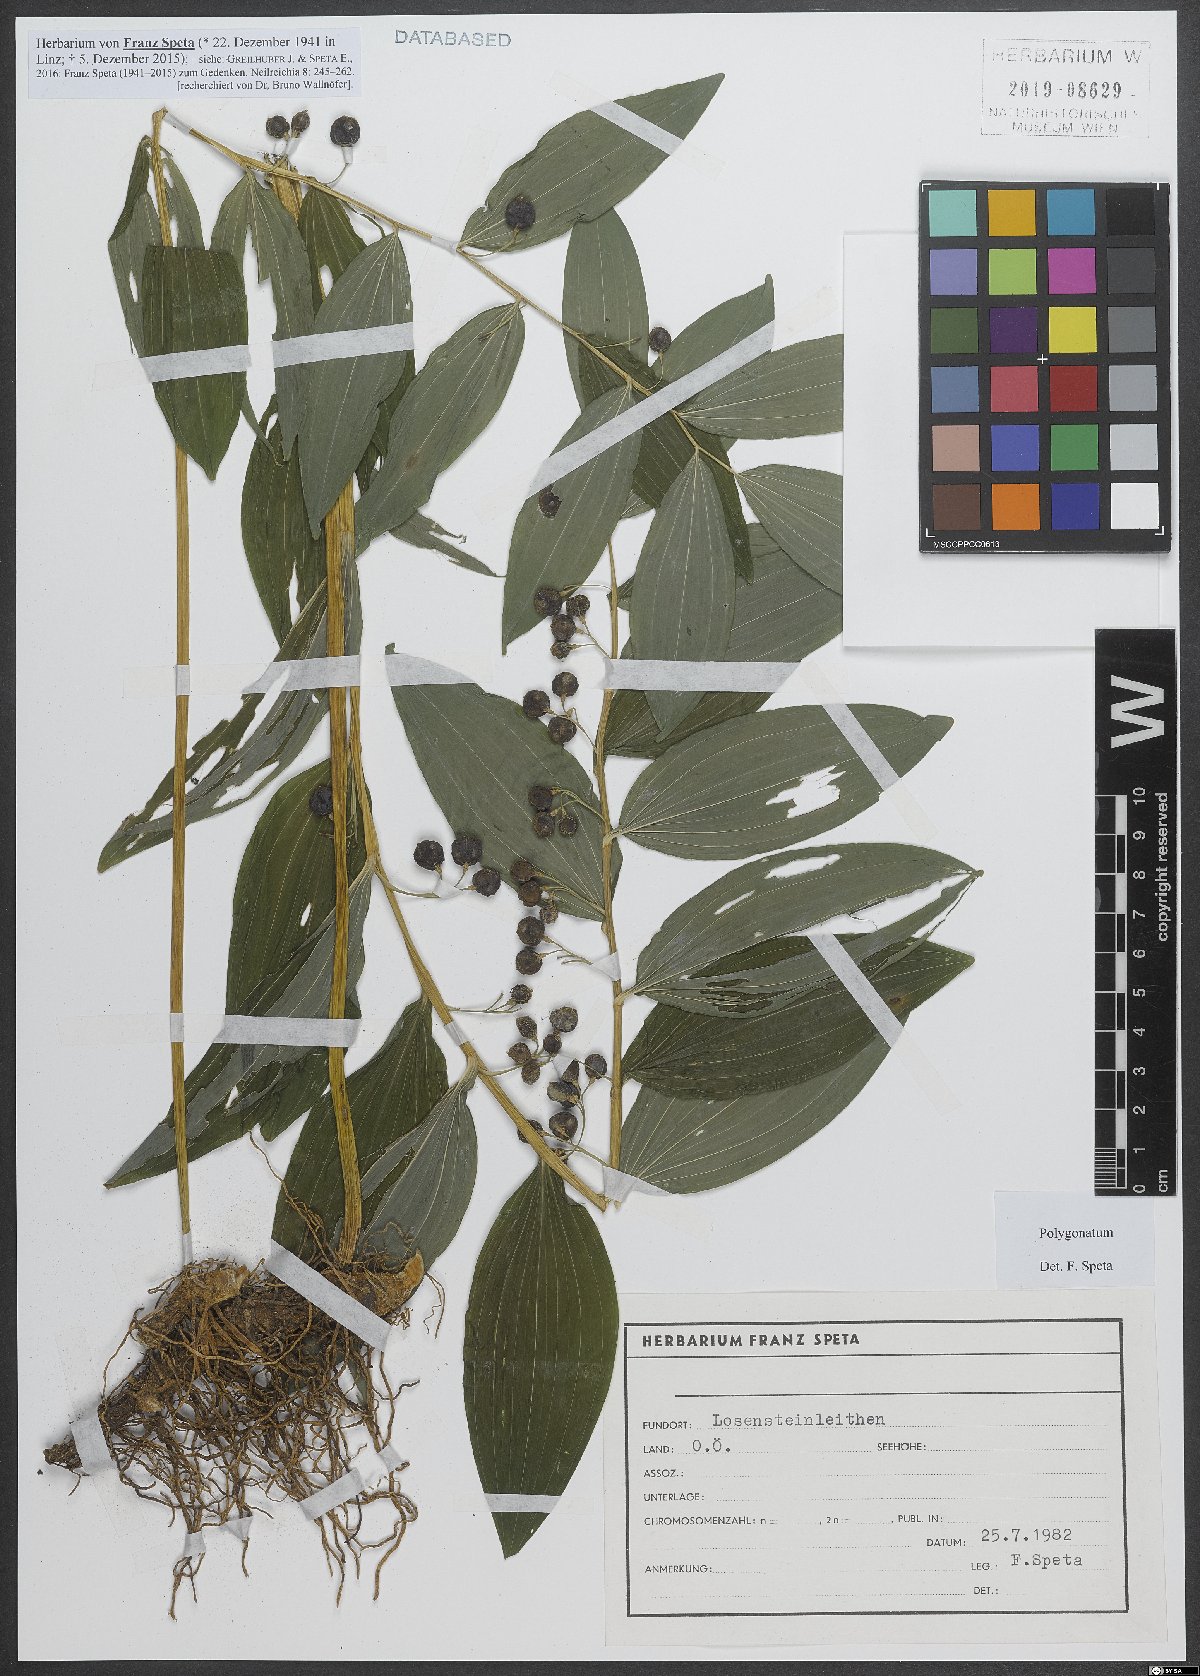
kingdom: Plantae
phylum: Tracheophyta
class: Liliopsida
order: Asparagales
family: Asparagaceae
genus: Polygonatum
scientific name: Polygonatum
